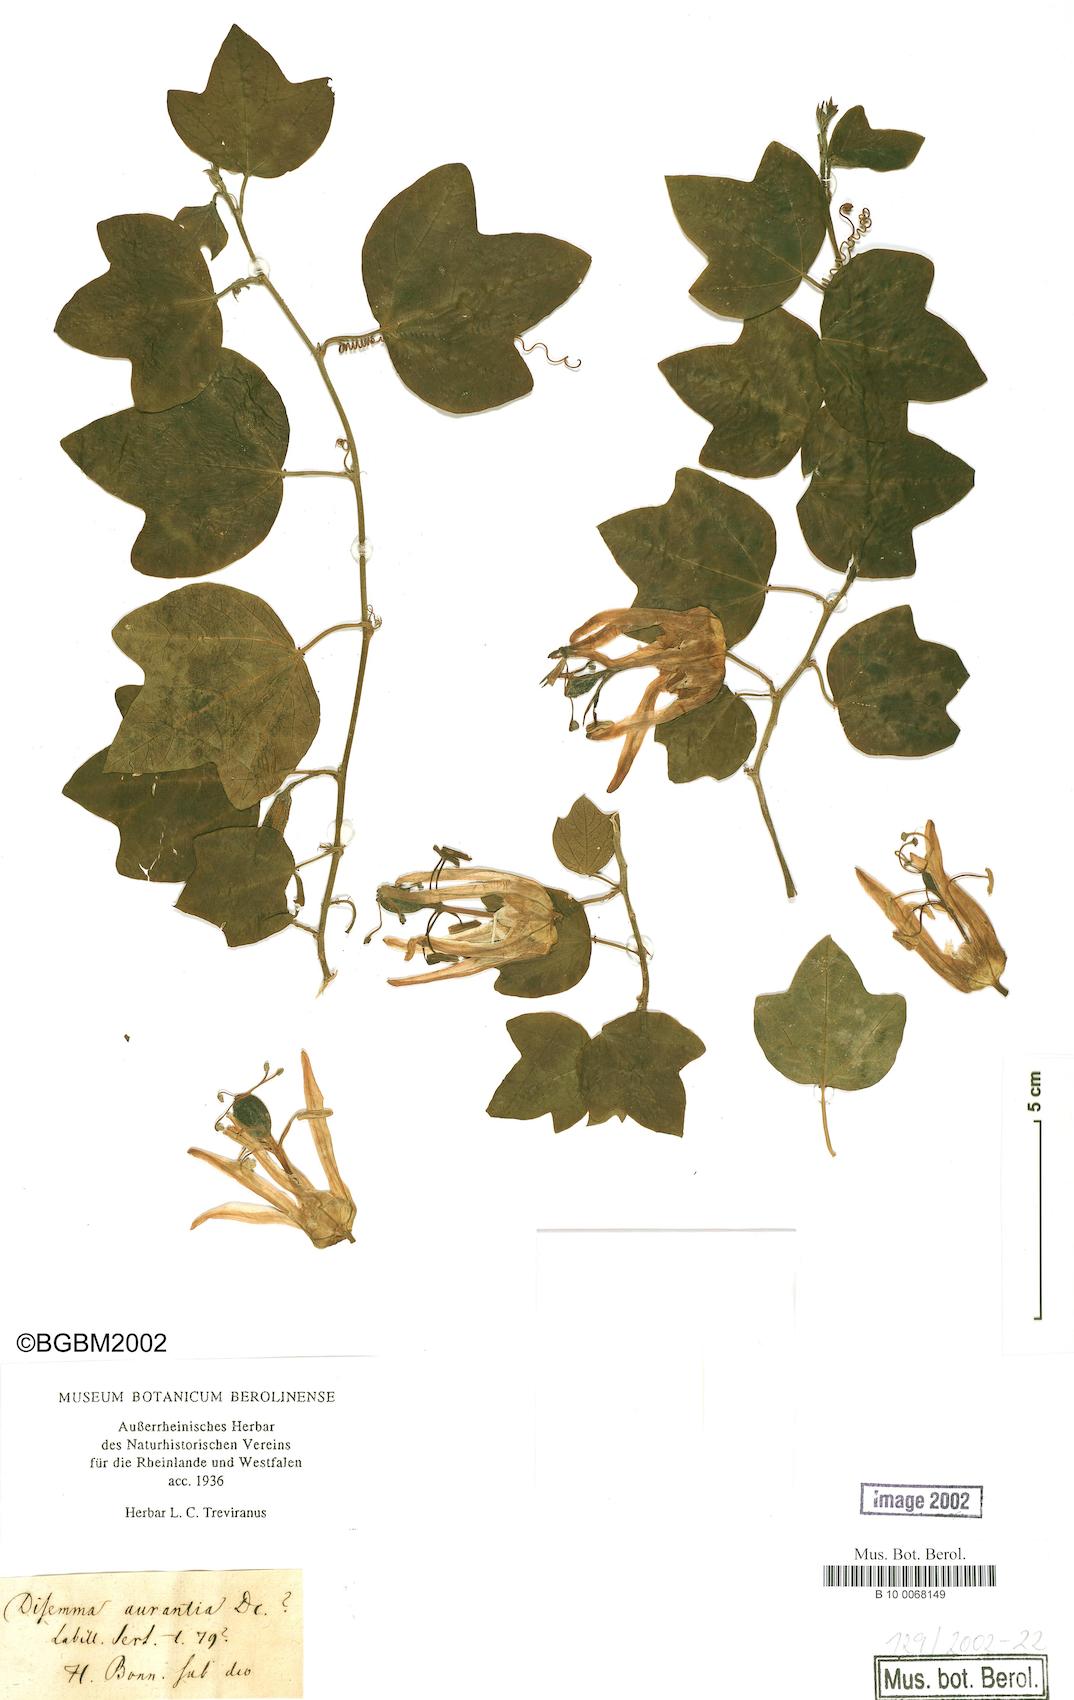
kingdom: Plantae
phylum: Tracheophyta
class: Magnoliopsida
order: Malpighiales
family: Passifloraceae
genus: Passiflora
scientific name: Passiflora aurantia
